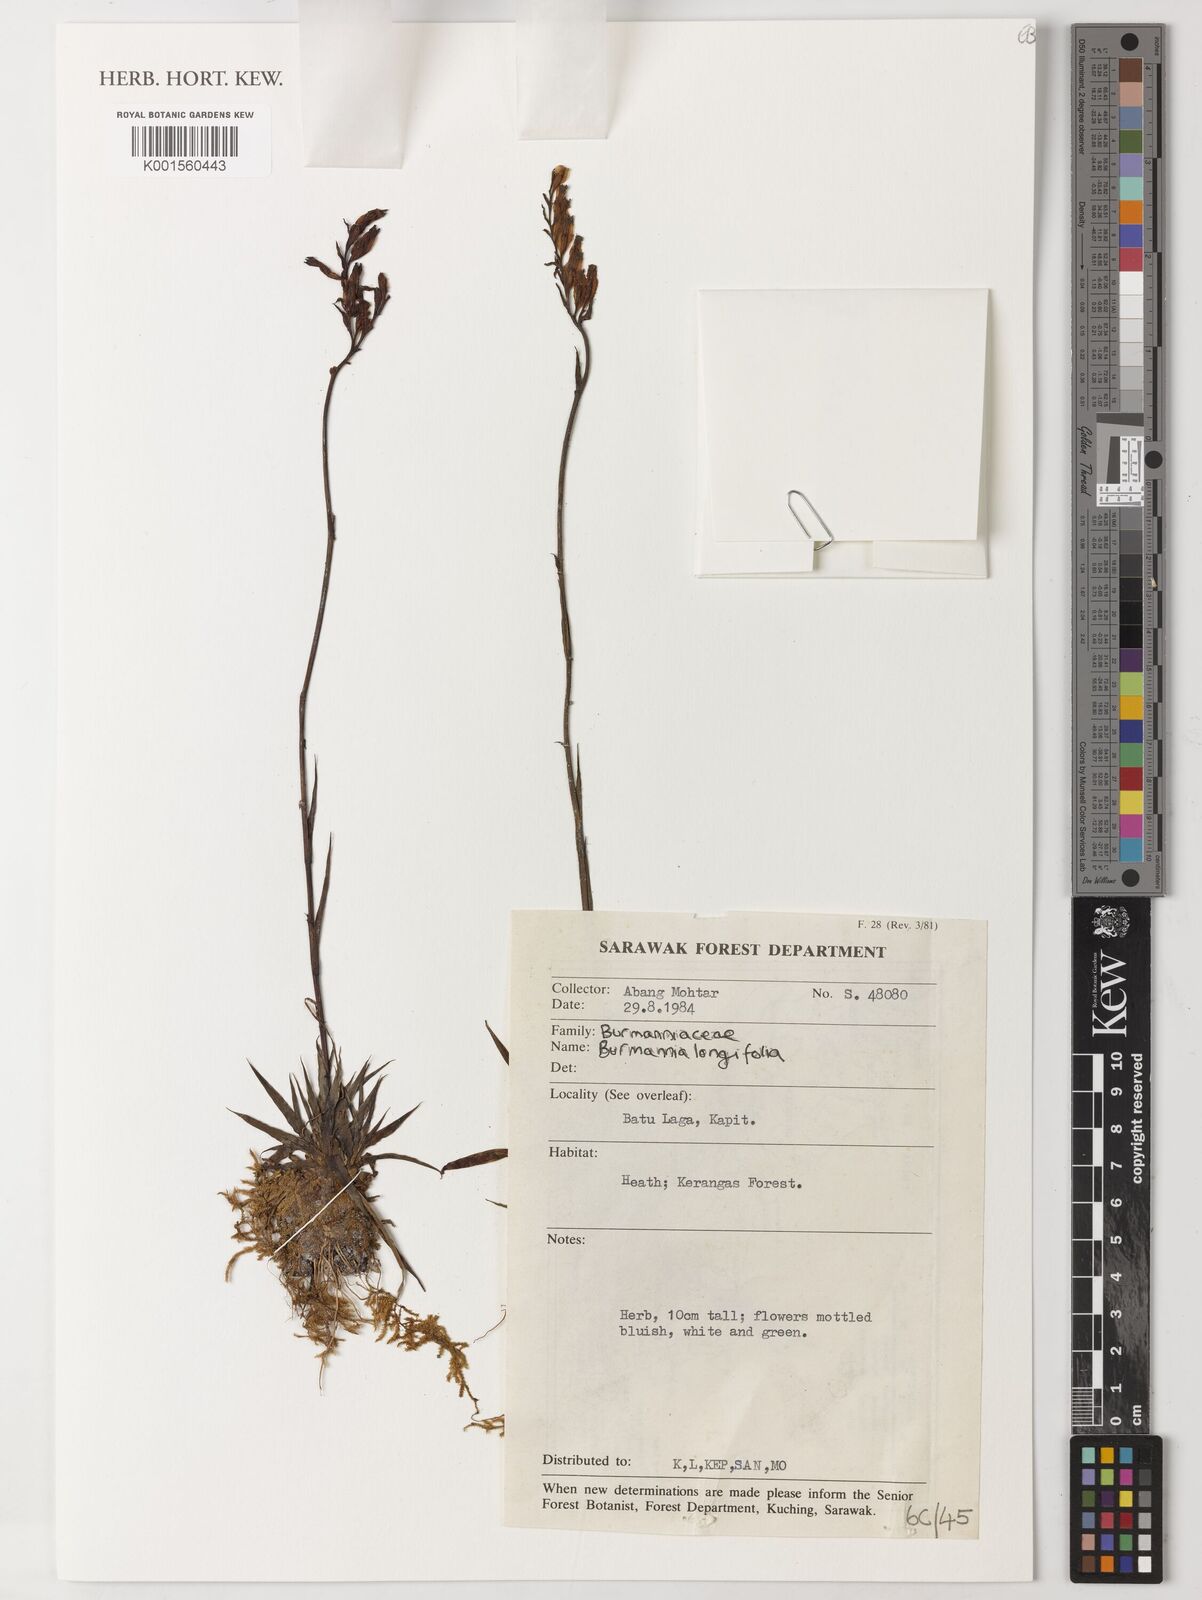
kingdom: Plantae
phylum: Tracheophyta
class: Liliopsida
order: Dioscoreales
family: Burmanniaceae
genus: Burmannia
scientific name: Burmannia longifolia
